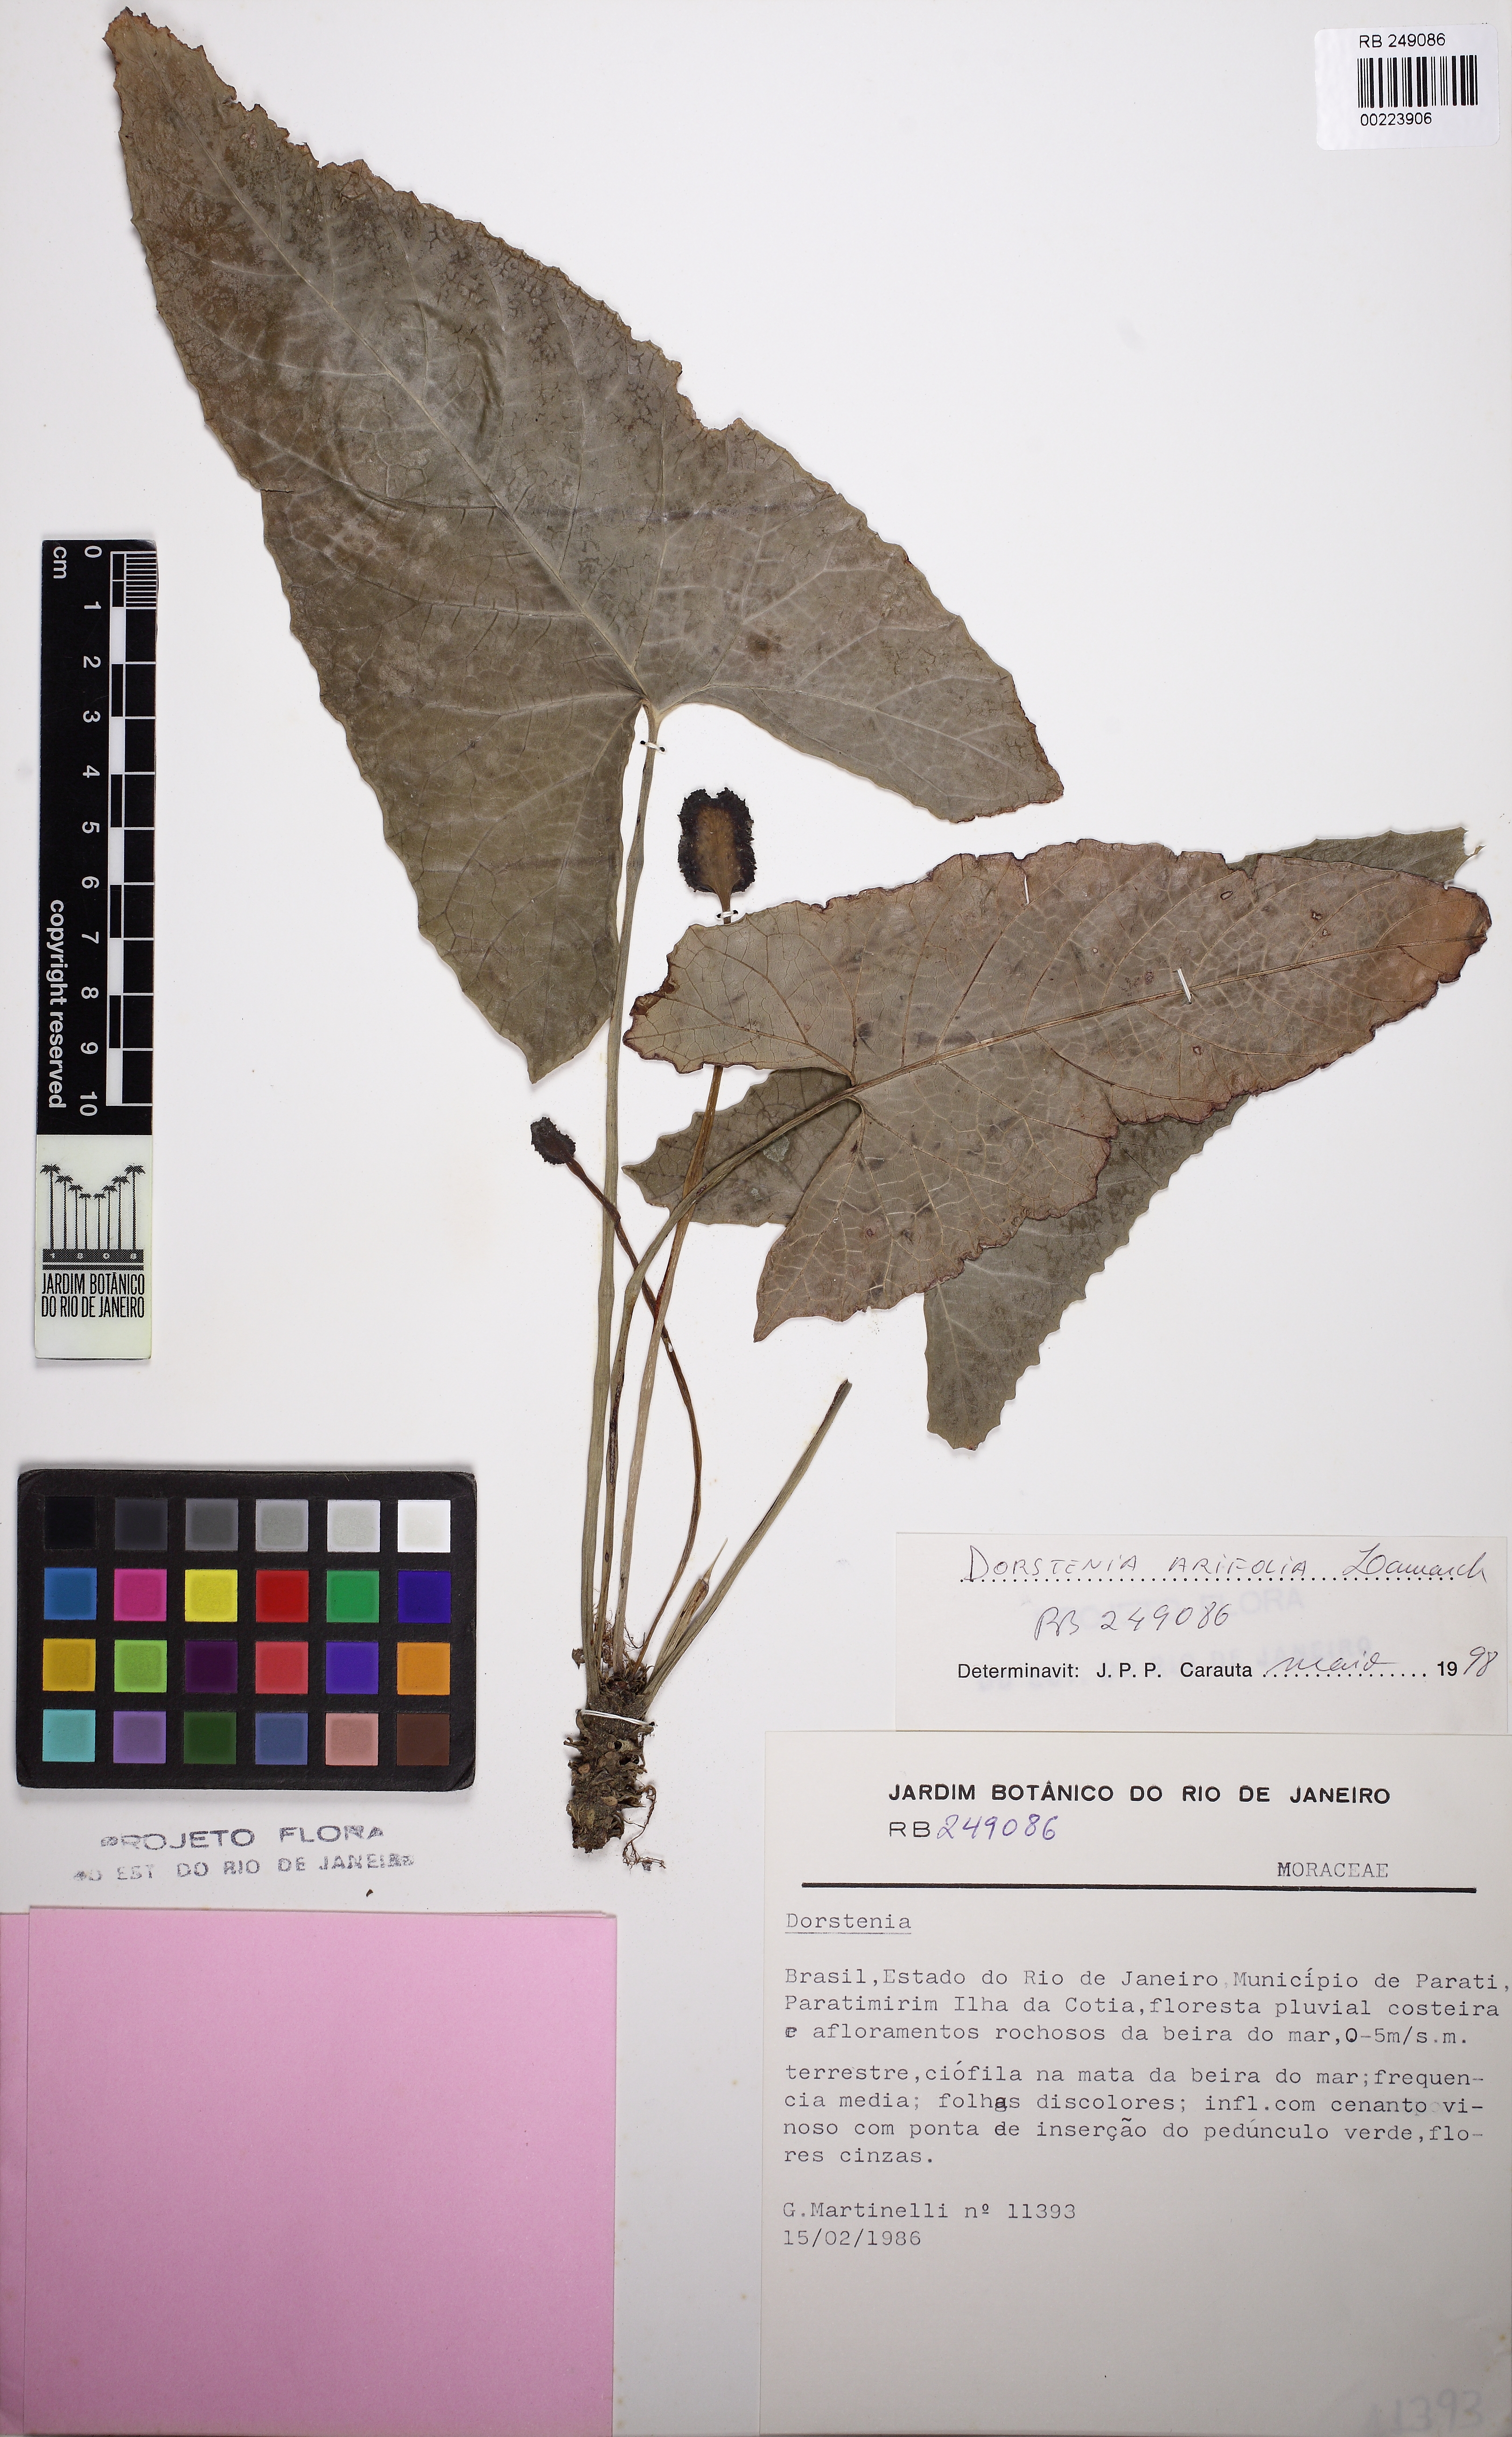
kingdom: Plantae
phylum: Tracheophyta
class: Magnoliopsida
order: Rosales
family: Moraceae
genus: Dorstenia
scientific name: Dorstenia arifolia
